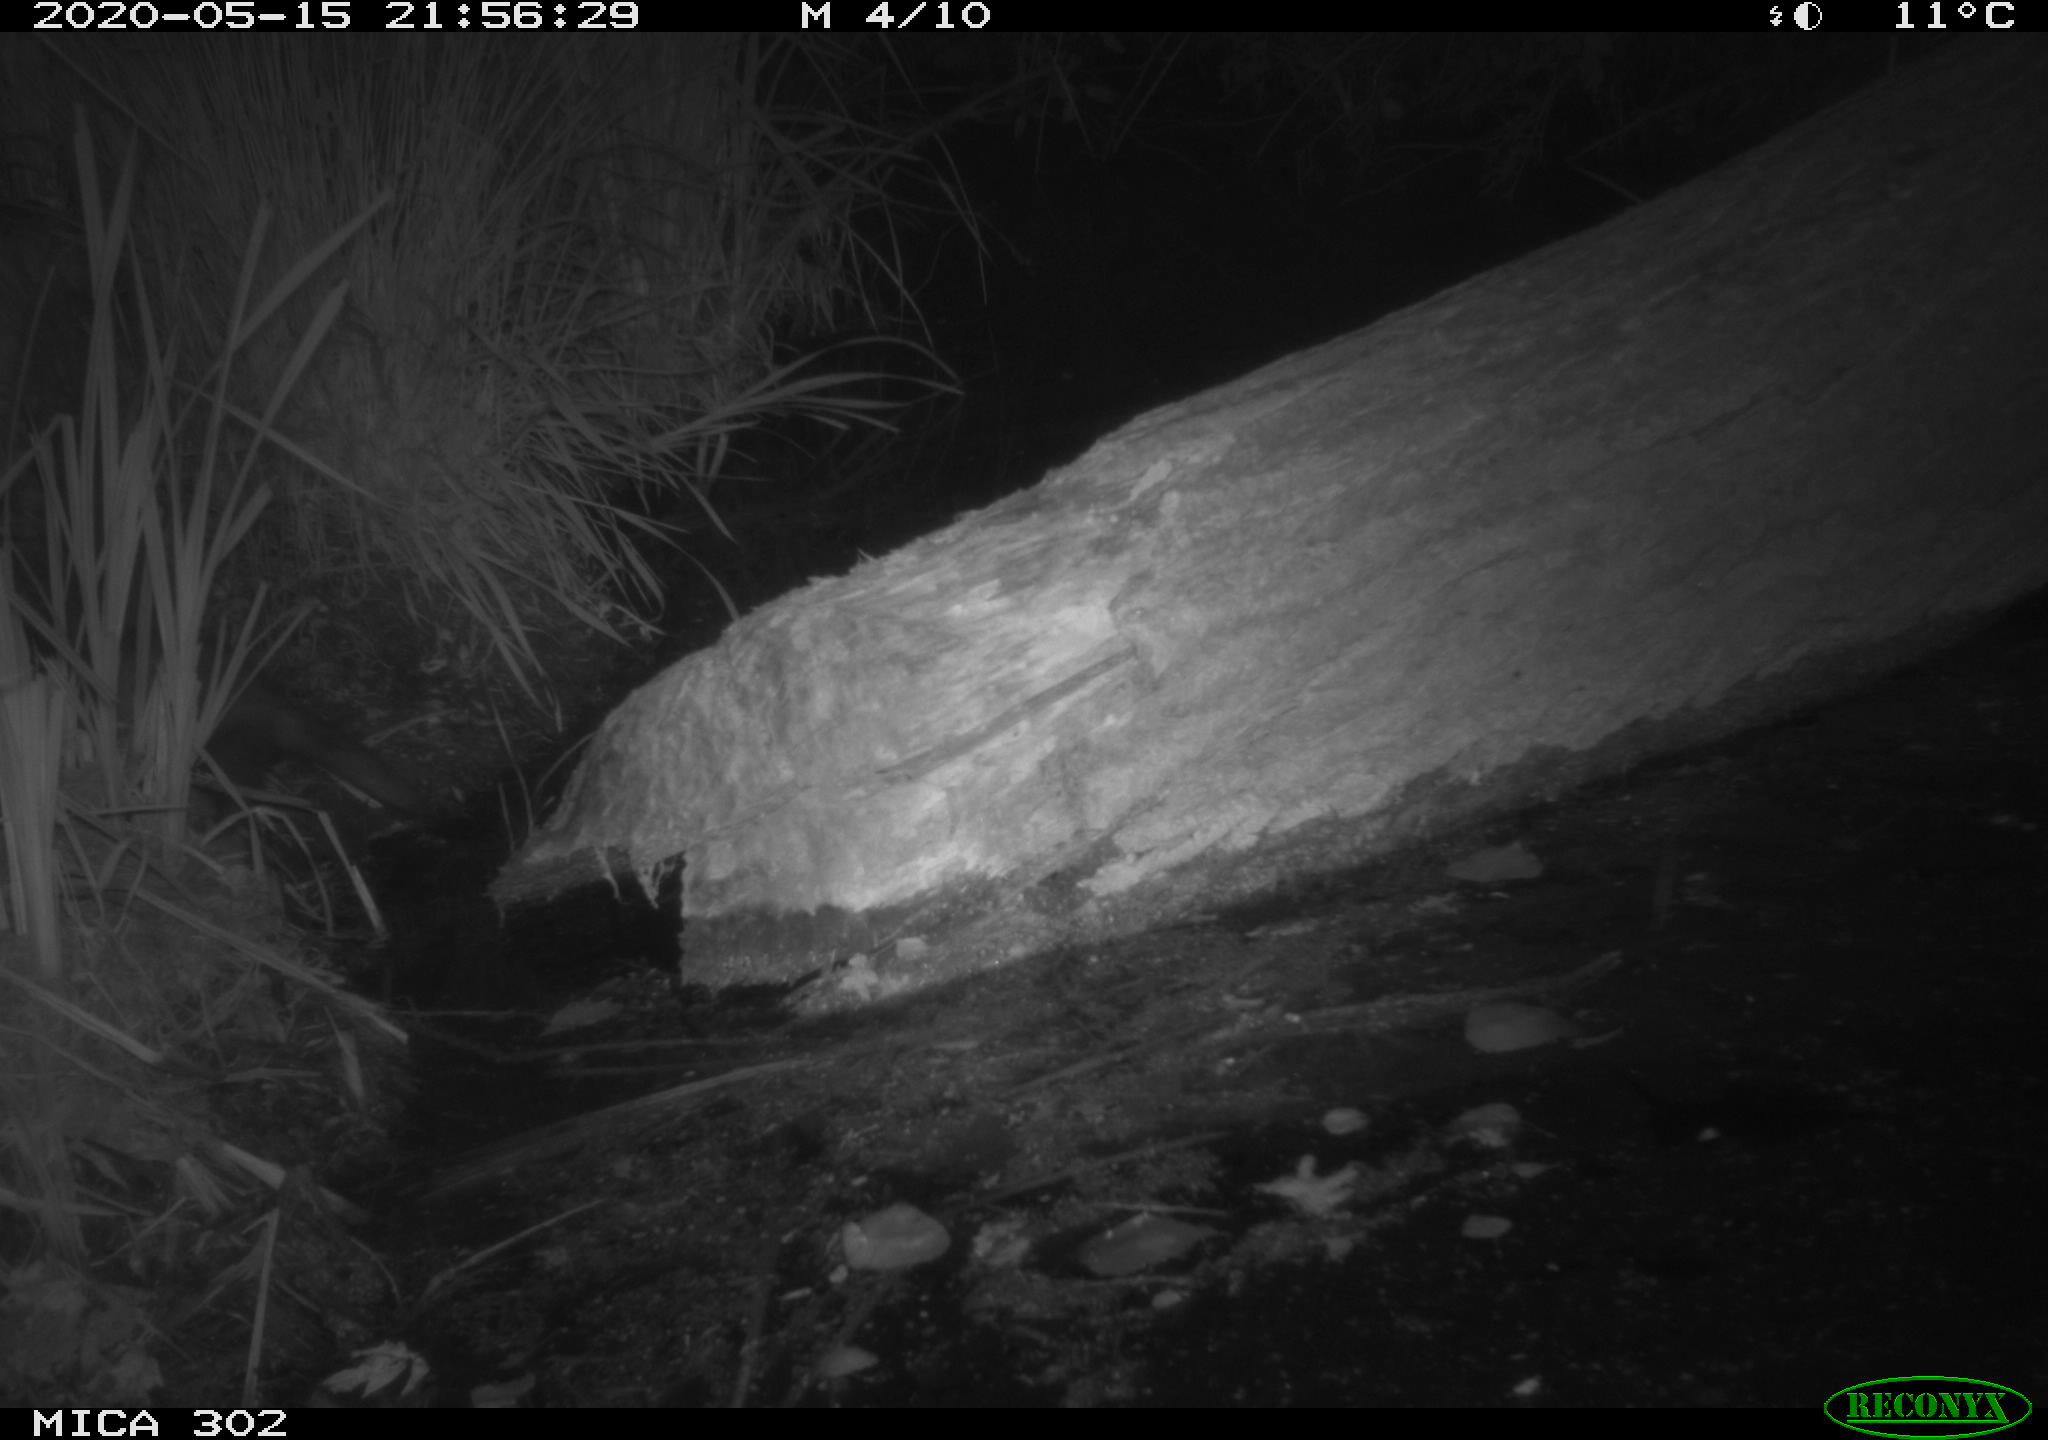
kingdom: Animalia
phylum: Chordata
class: Mammalia
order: Carnivora
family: Mustelidae
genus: Mustela
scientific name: Mustela putorius
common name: European polecat
